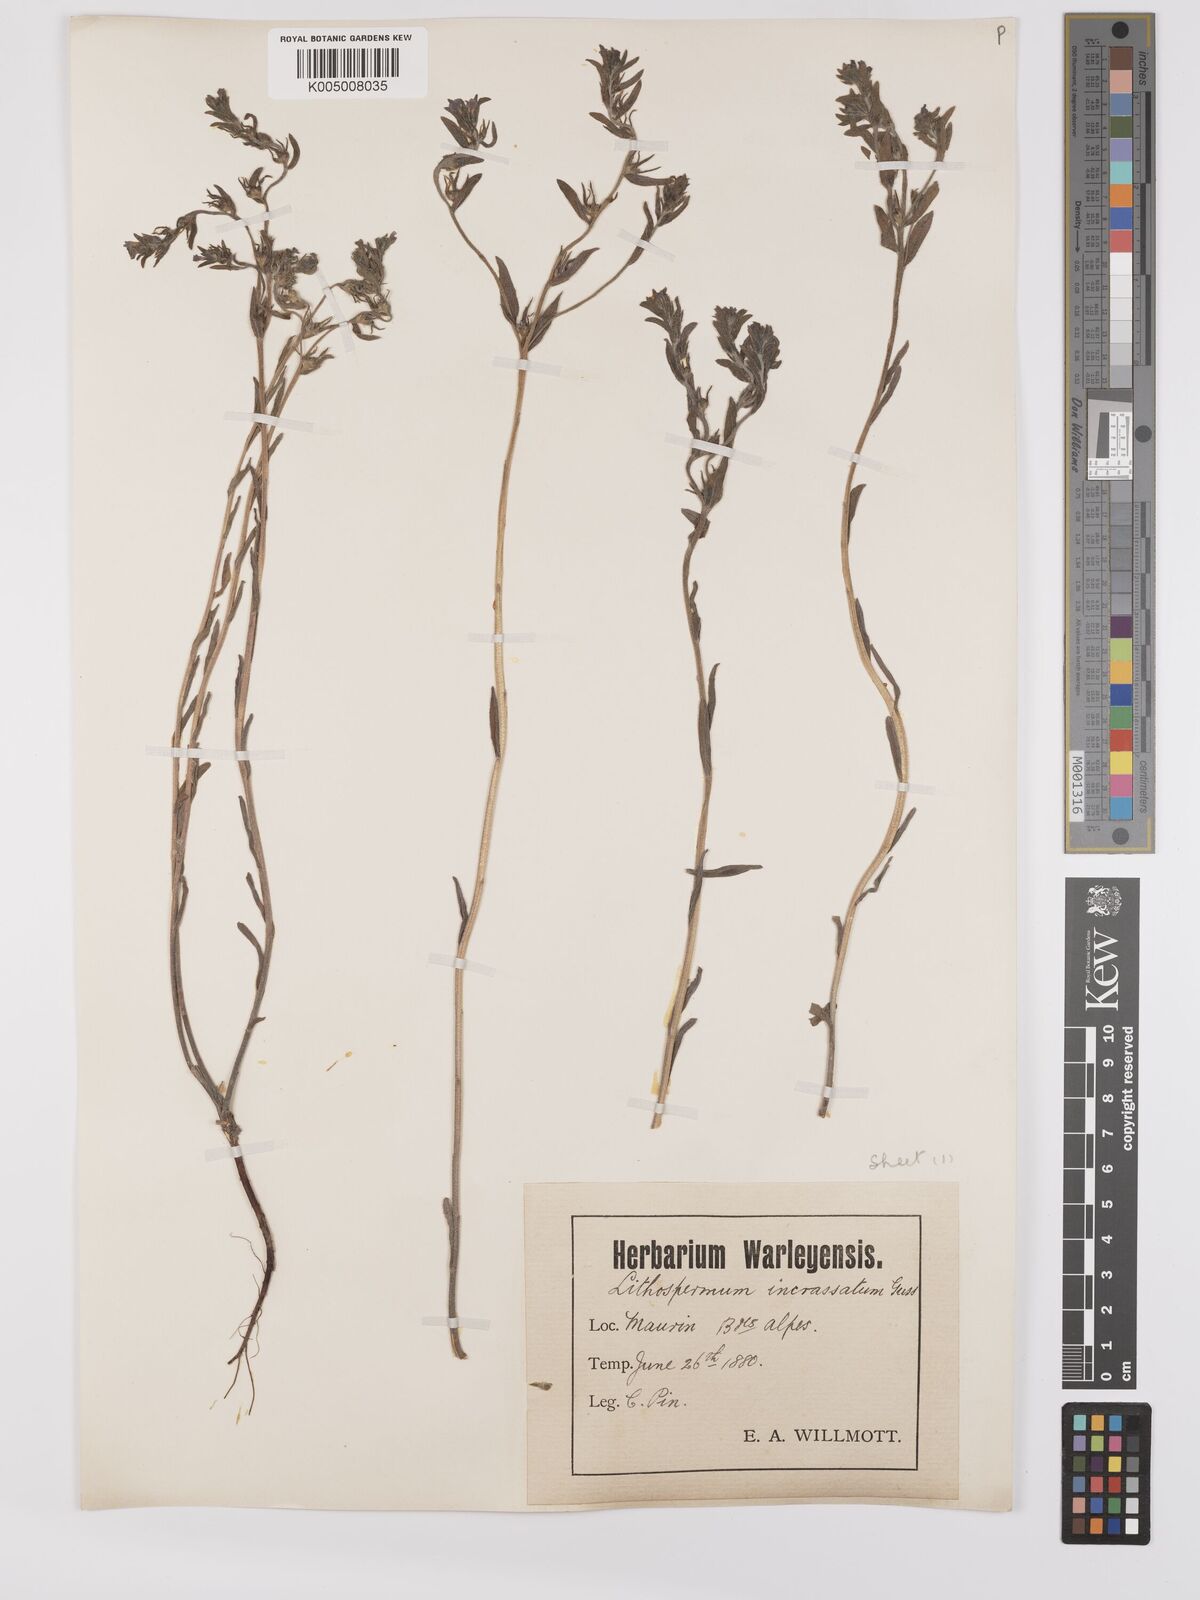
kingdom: Plantae
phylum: Tracheophyta
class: Magnoliopsida
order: Boraginales
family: Boraginaceae
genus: Buglossoides
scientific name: Buglossoides incrassata
